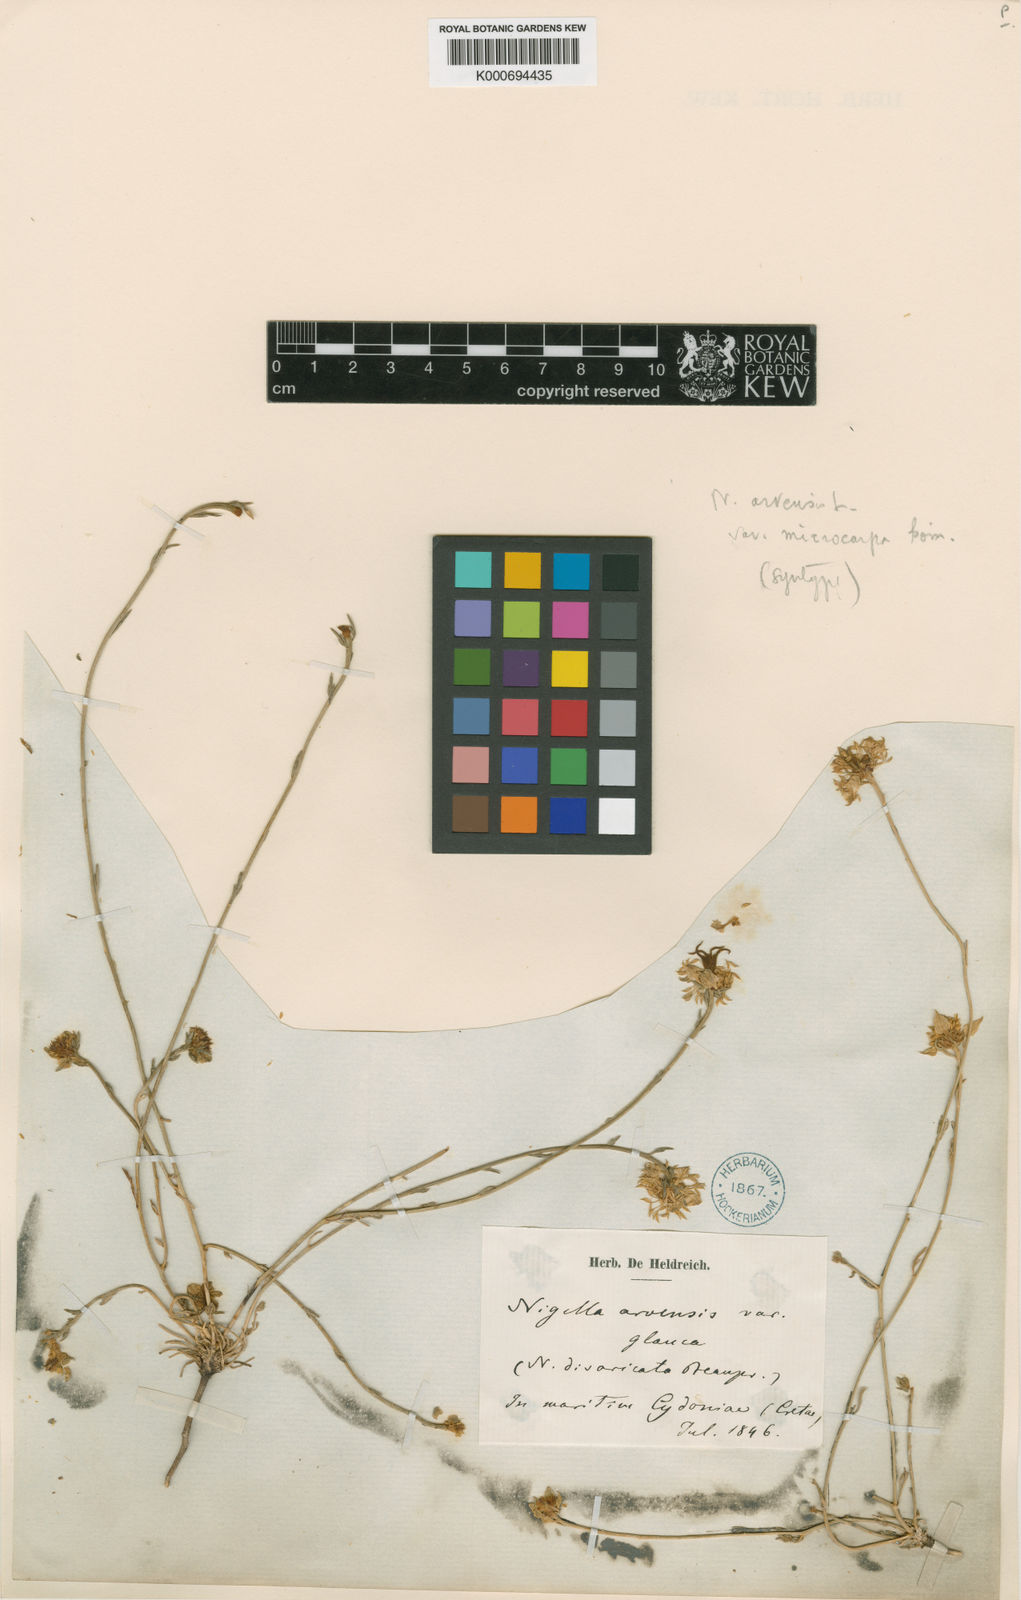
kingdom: Plantae
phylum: Tracheophyta
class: Magnoliopsida
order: Ranunculales
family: Ranunculaceae
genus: Nigella
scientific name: Nigella arvensis
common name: Wild fennel-flower
